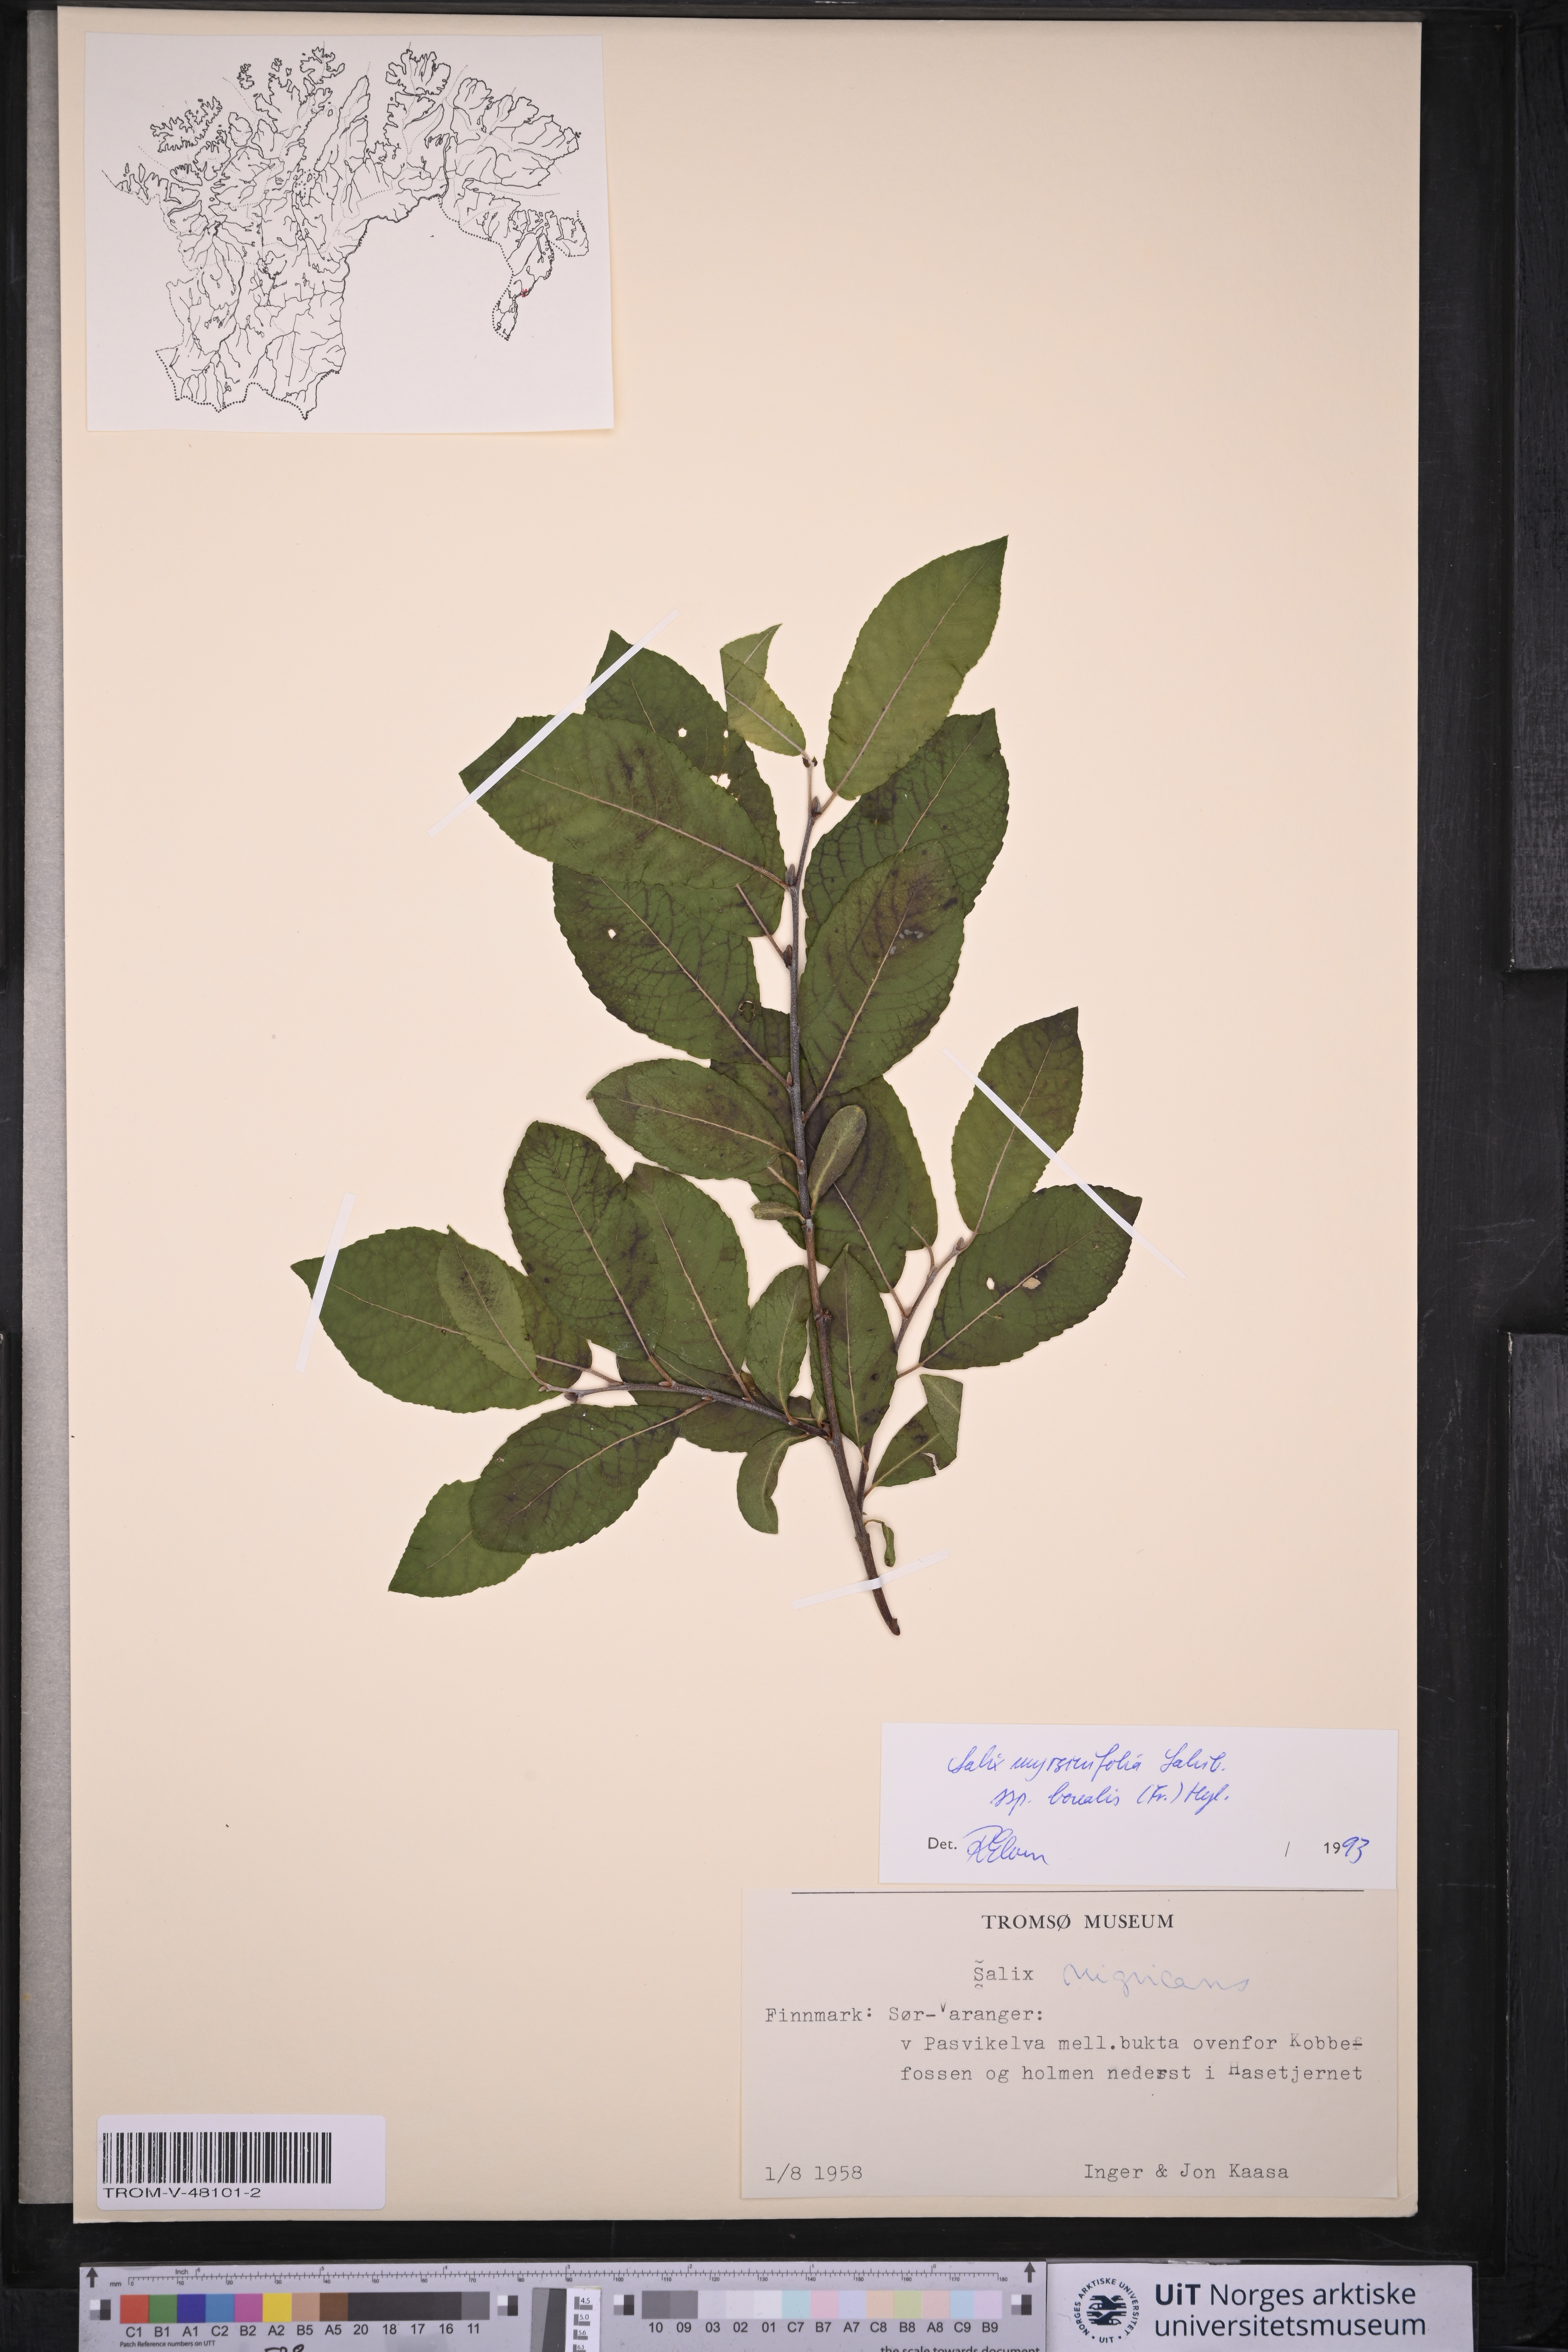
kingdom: Plantae
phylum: Tracheophyta
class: Magnoliopsida
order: Malpighiales
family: Salicaceae
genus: Salix
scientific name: Salix myrsinifolia
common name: Dark-leaved willow
